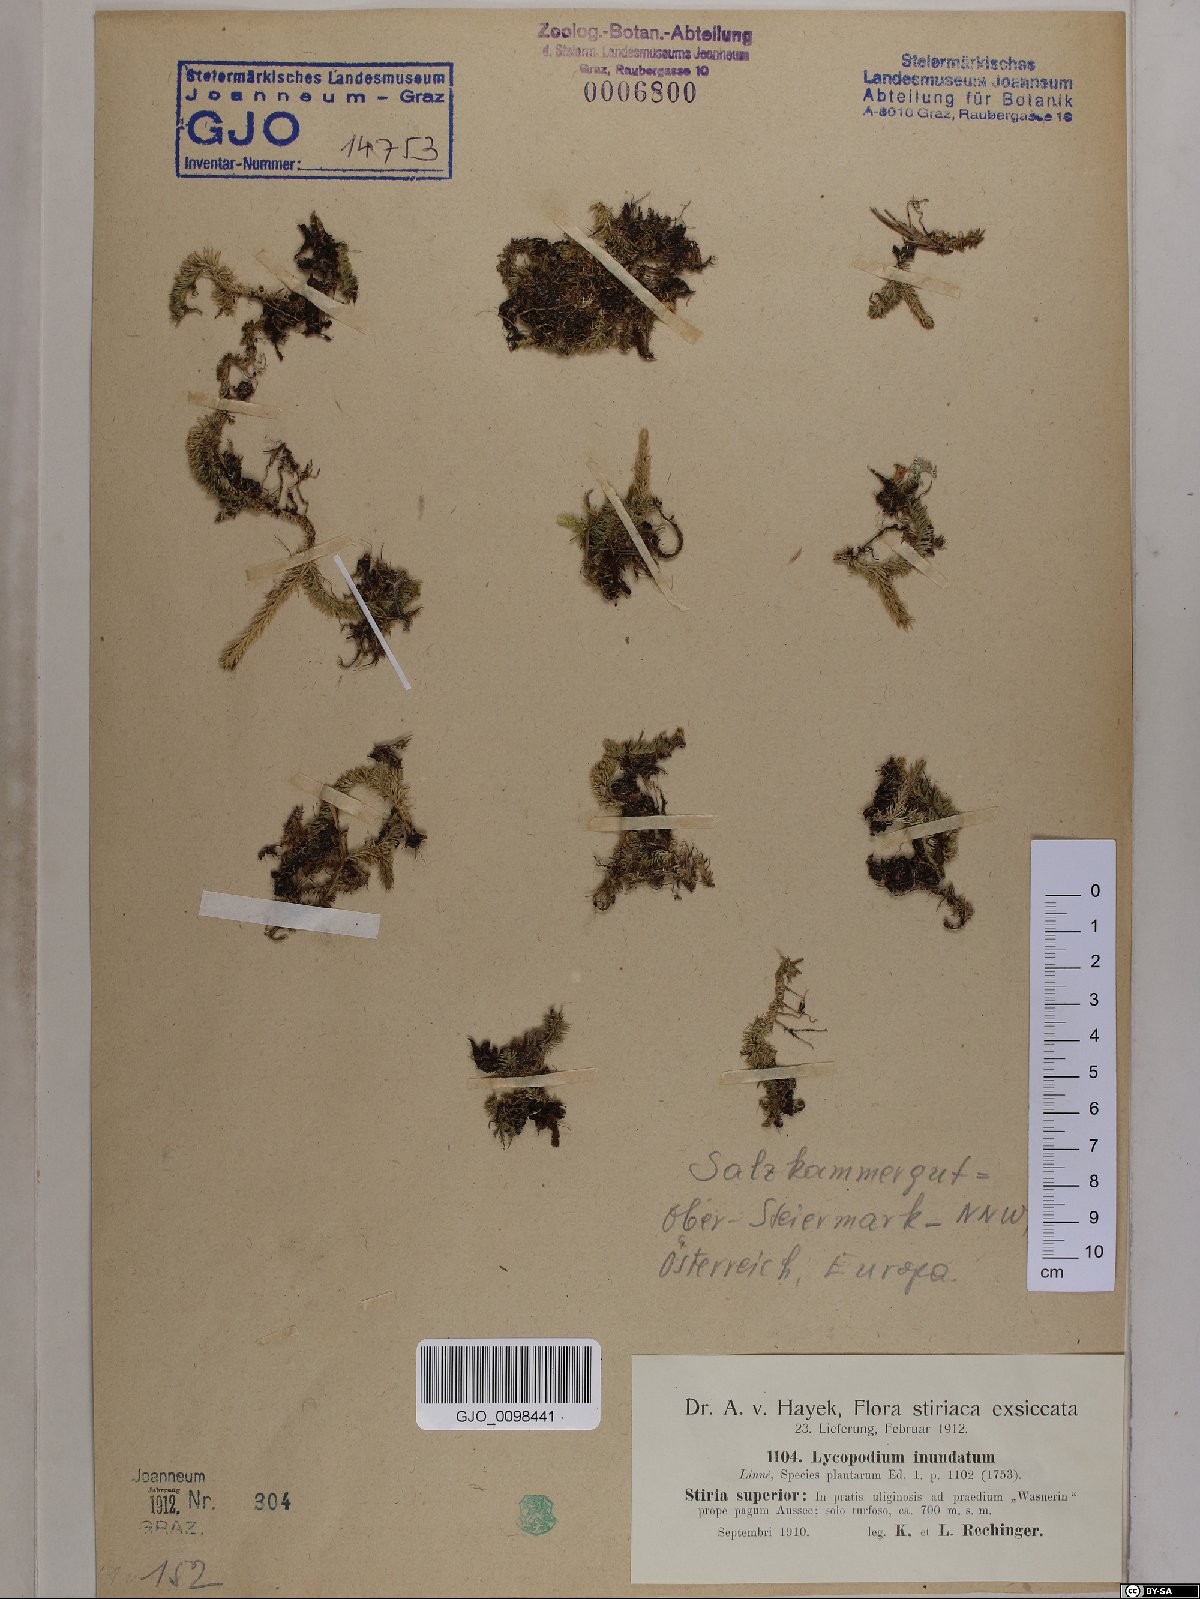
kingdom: Plantae
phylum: Tracheophyta
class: Lycopodiopsida
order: Lycopodiales
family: Lycopodiaceae
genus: Lycopodiella
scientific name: Lycopodiella inundata
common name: Marsh clubmoss
